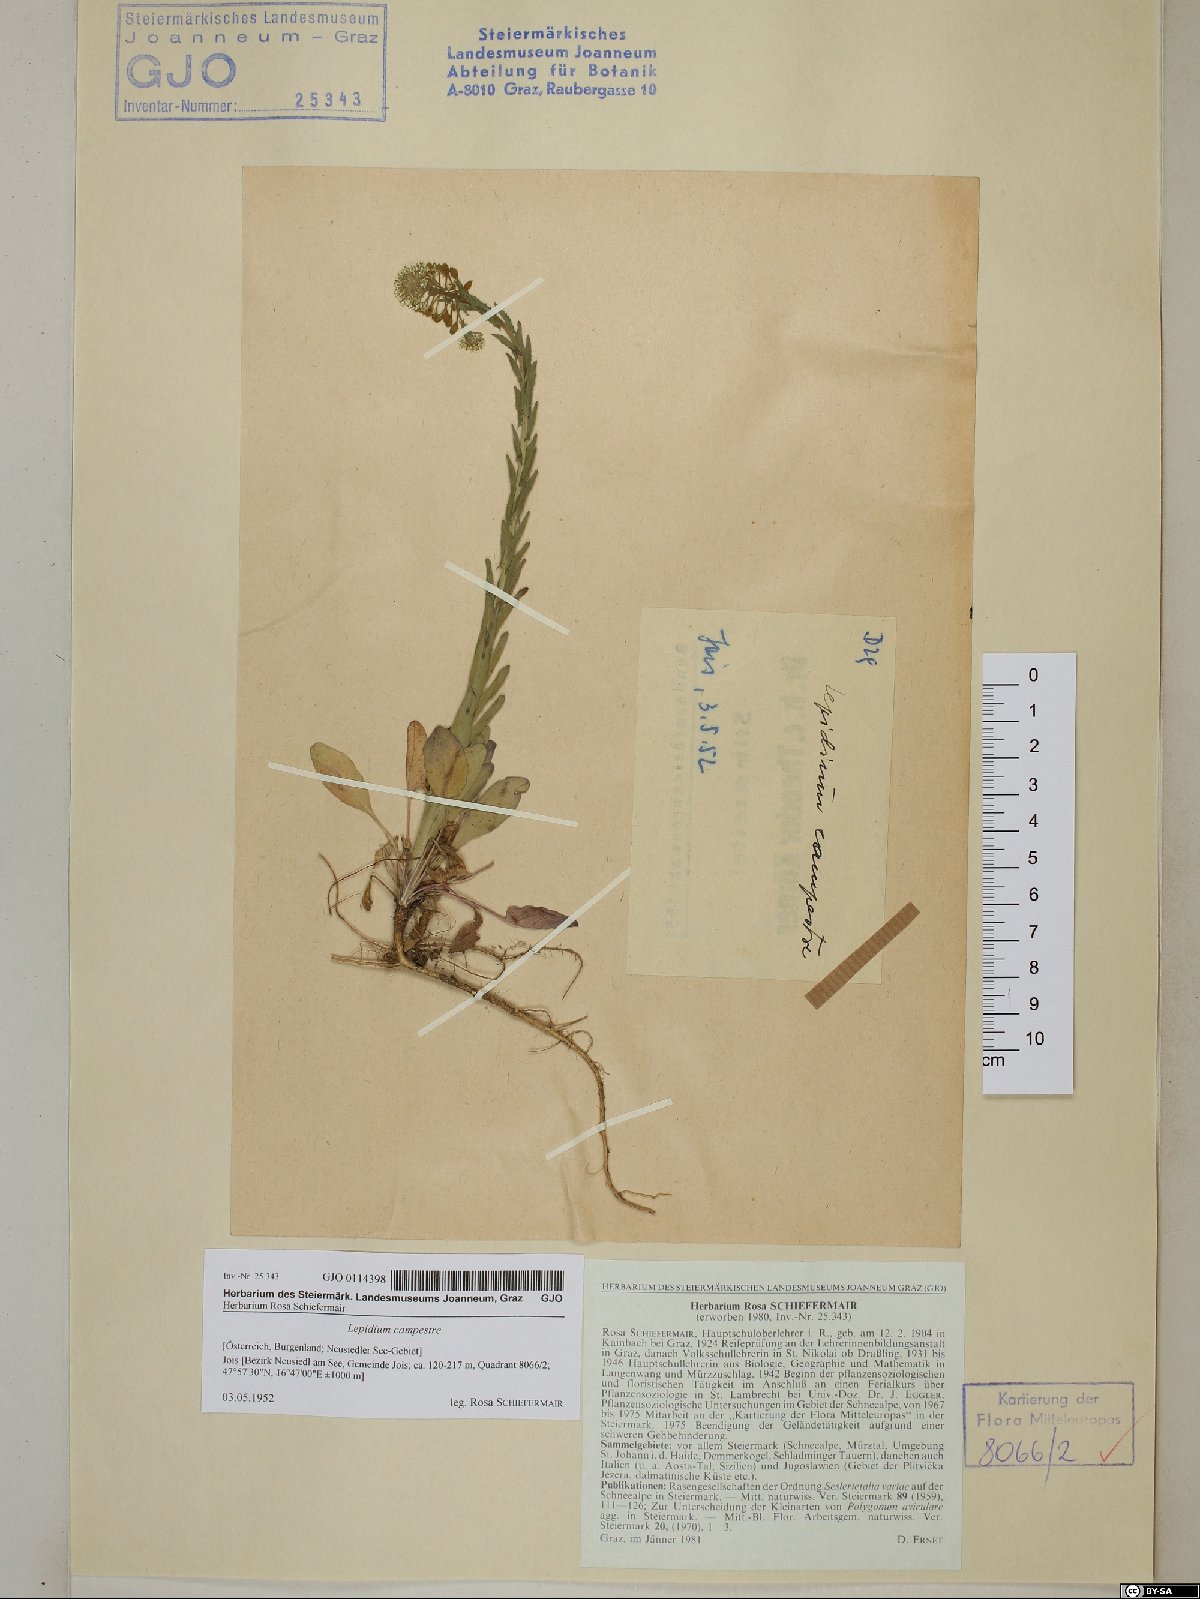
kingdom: Plantae
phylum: Tracheophyta
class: Magnoliopsida
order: Brassicales
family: Brassicaceae
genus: Lepidium
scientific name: Lepidium campestre
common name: Field pepperwort
